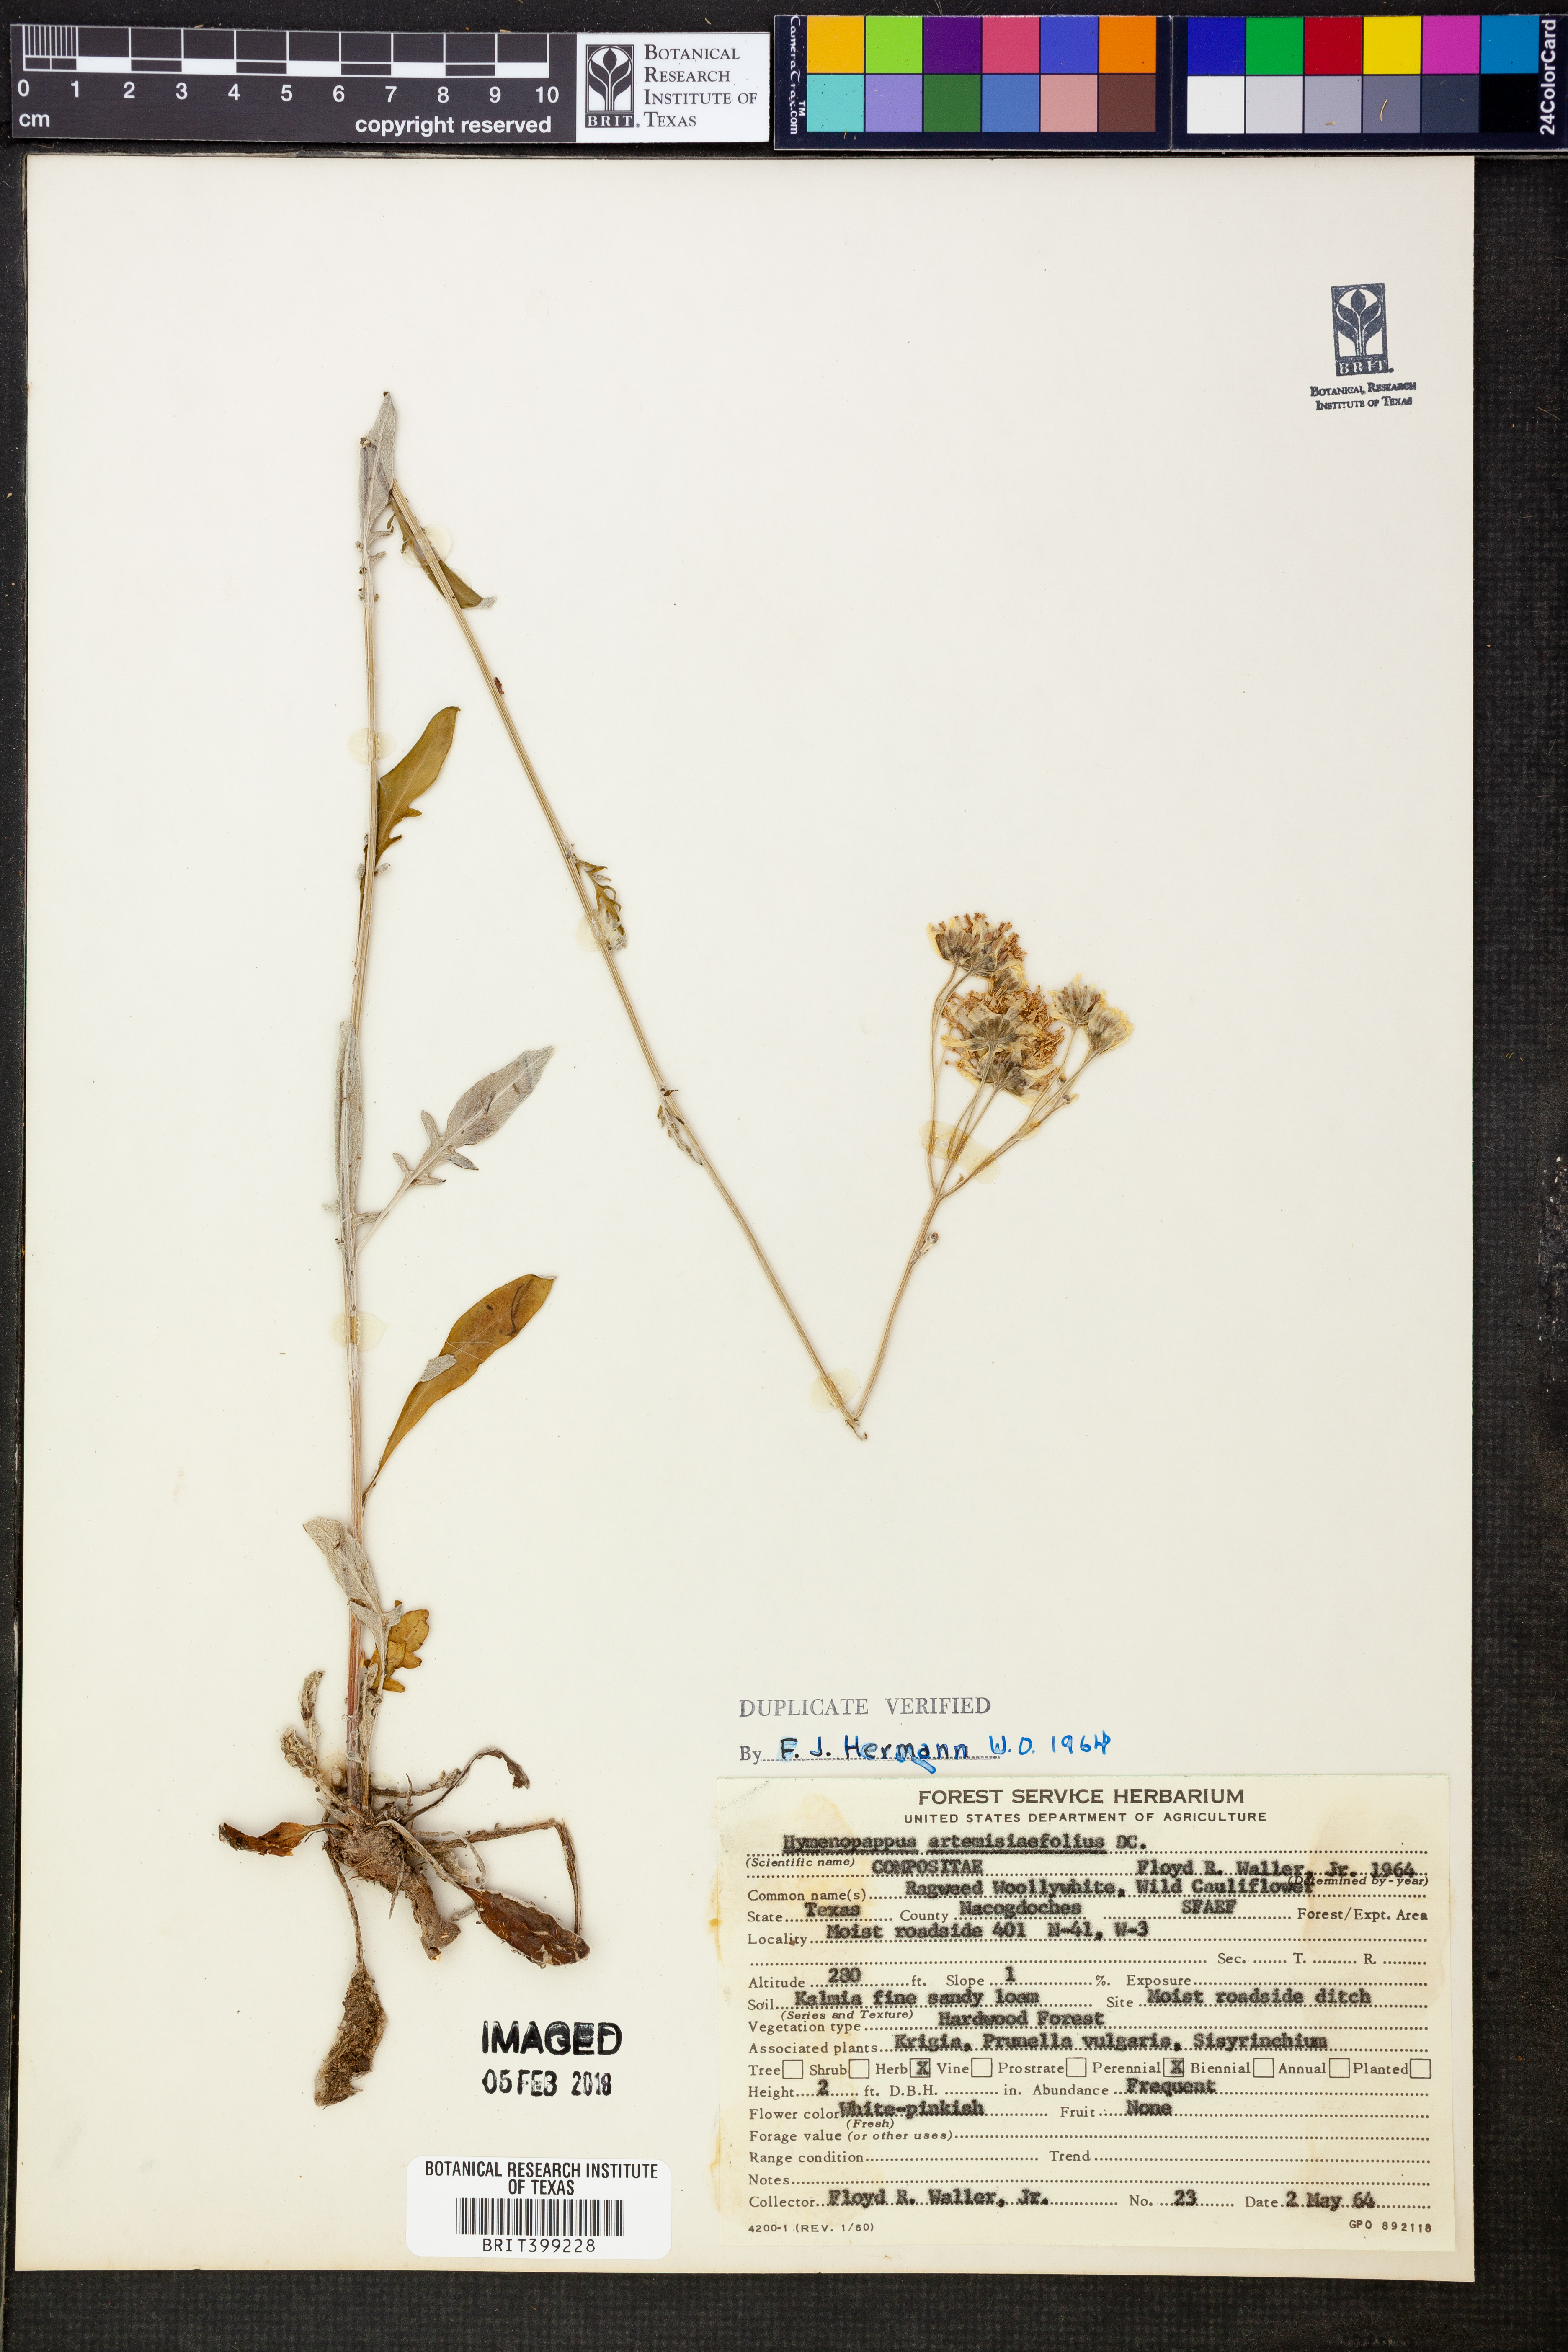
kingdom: Plantae
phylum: Tracheophyta
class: Magnoliopsida
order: Asterales
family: Asteraceae
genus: Hymenopappus
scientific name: Hymenopappus artemisiifolius
